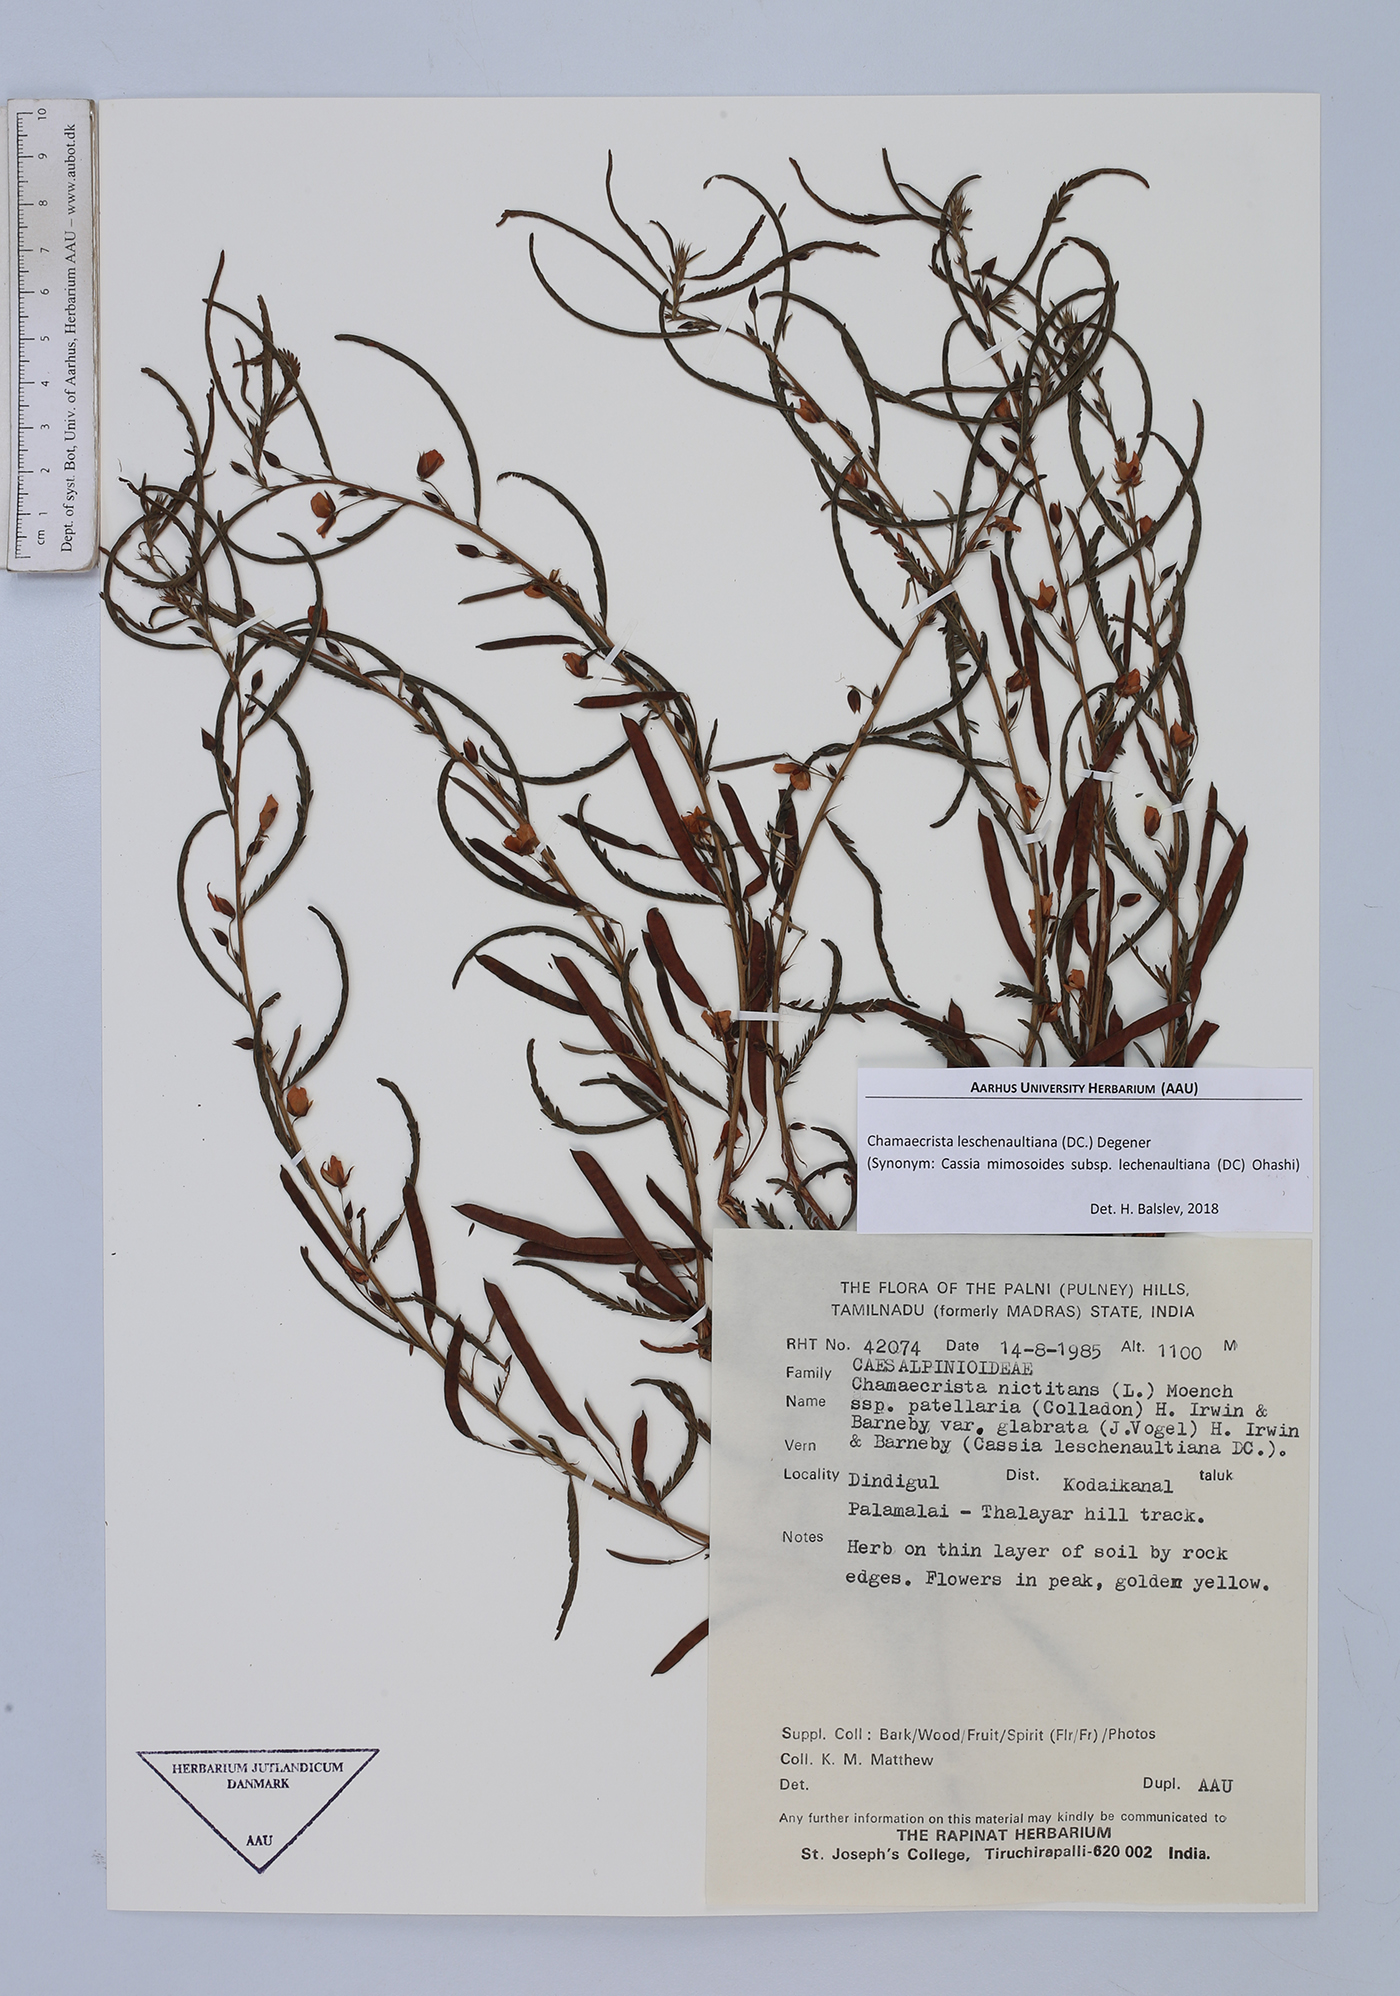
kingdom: Plantae
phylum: Tracheophyta
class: Magnoliopsida
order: Fabales
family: Fabaceae
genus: Chamaecrista
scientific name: Chamaecrista nictitans
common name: Sensitive cassia
